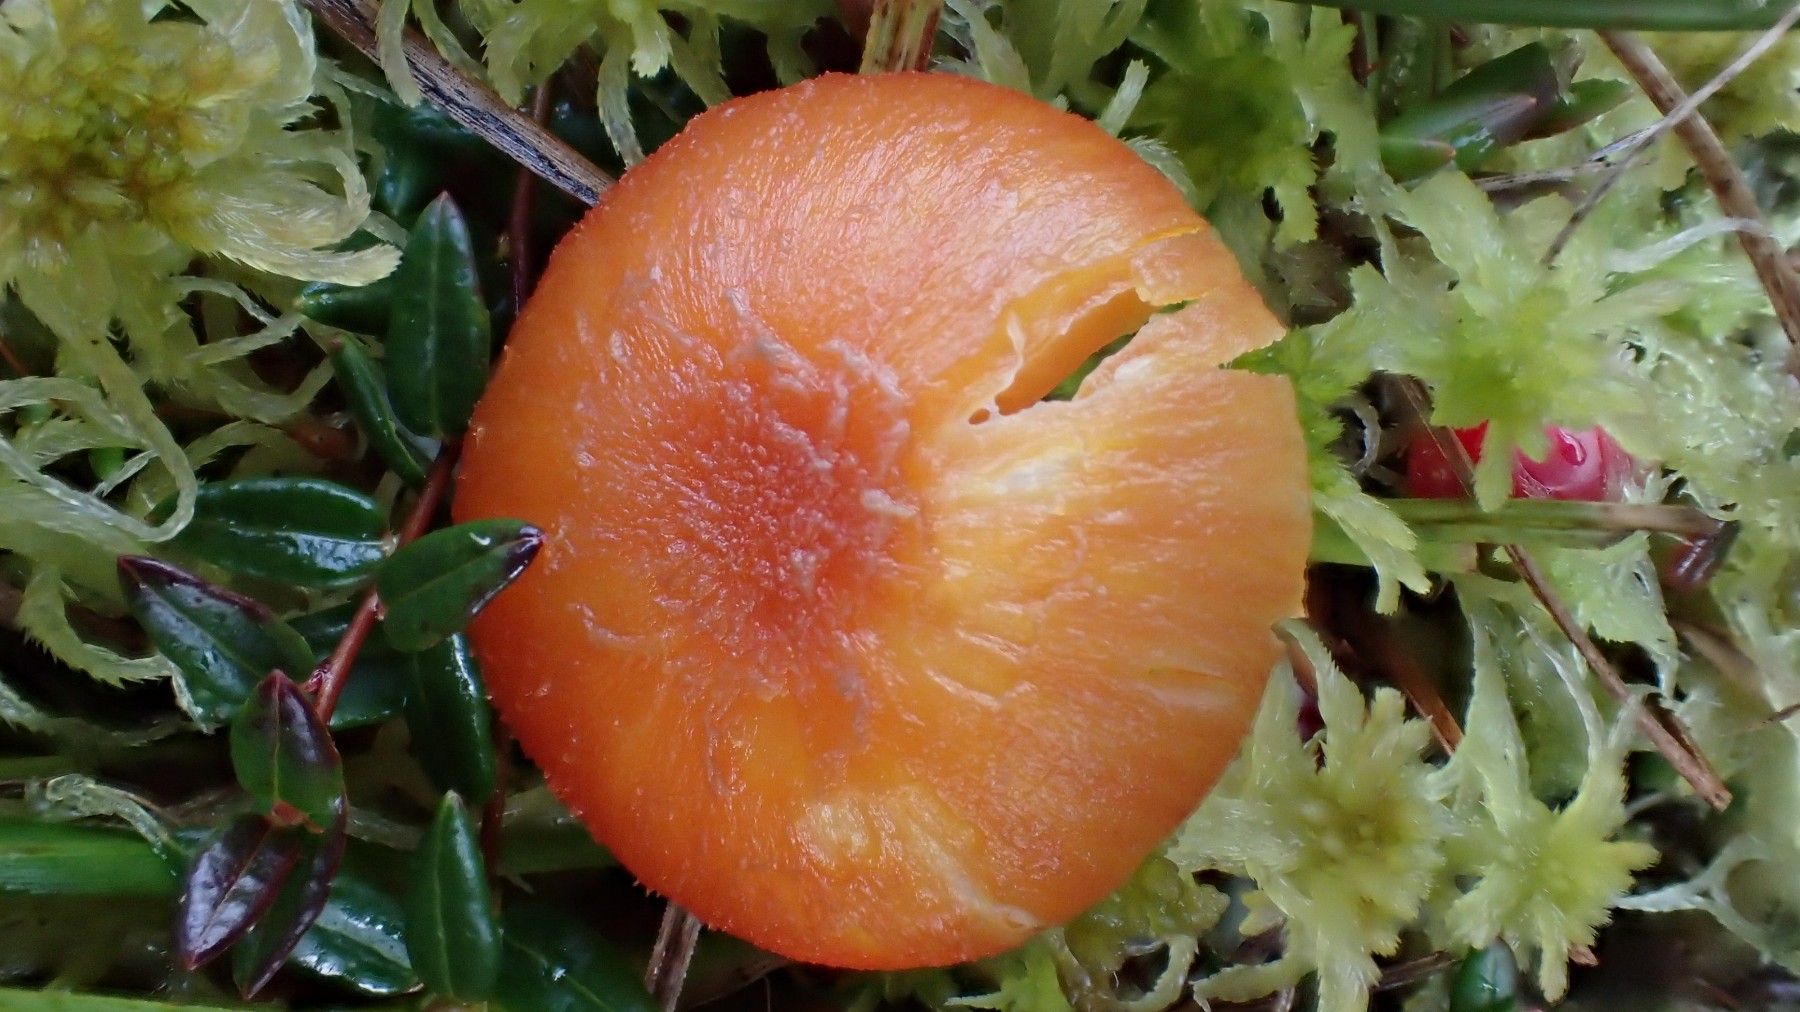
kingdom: Fungi
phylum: Basidiomycota
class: Agaricomycetes
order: Agaricales
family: Hygrophoraceae
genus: Hygrocybe
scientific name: Hygrocybe cantharellus
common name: kantarel-vokshat
